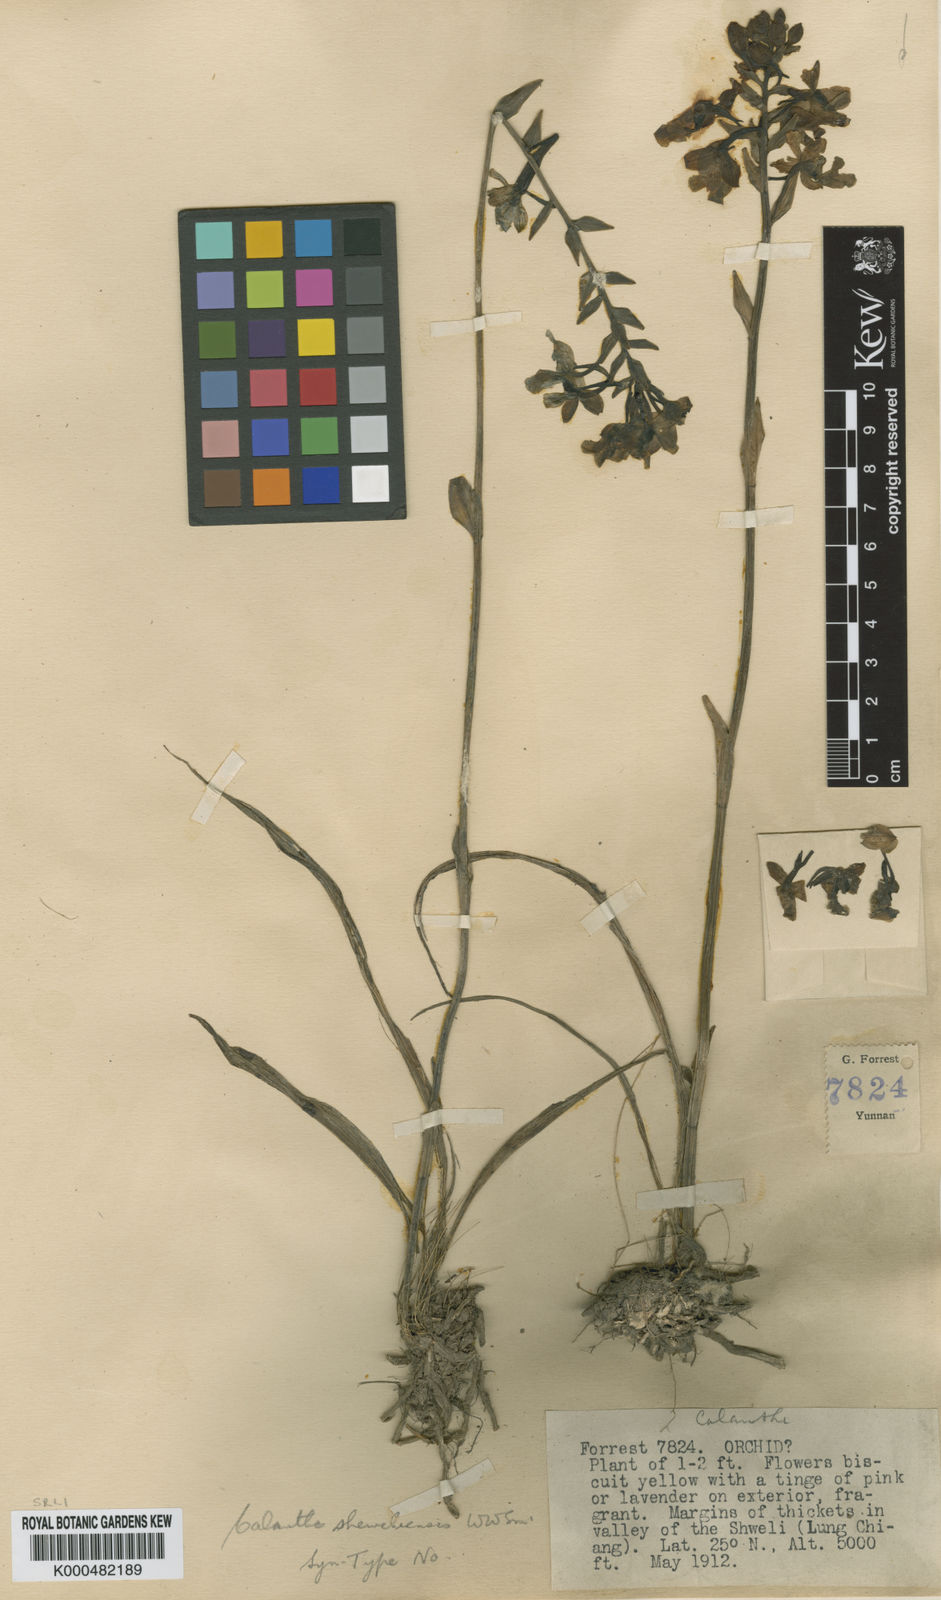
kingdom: Plantae
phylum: Tracheophyta
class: Liliopsida
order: Asparagales
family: Orchidaceae
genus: Calanthe
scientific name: Calanthe odora
